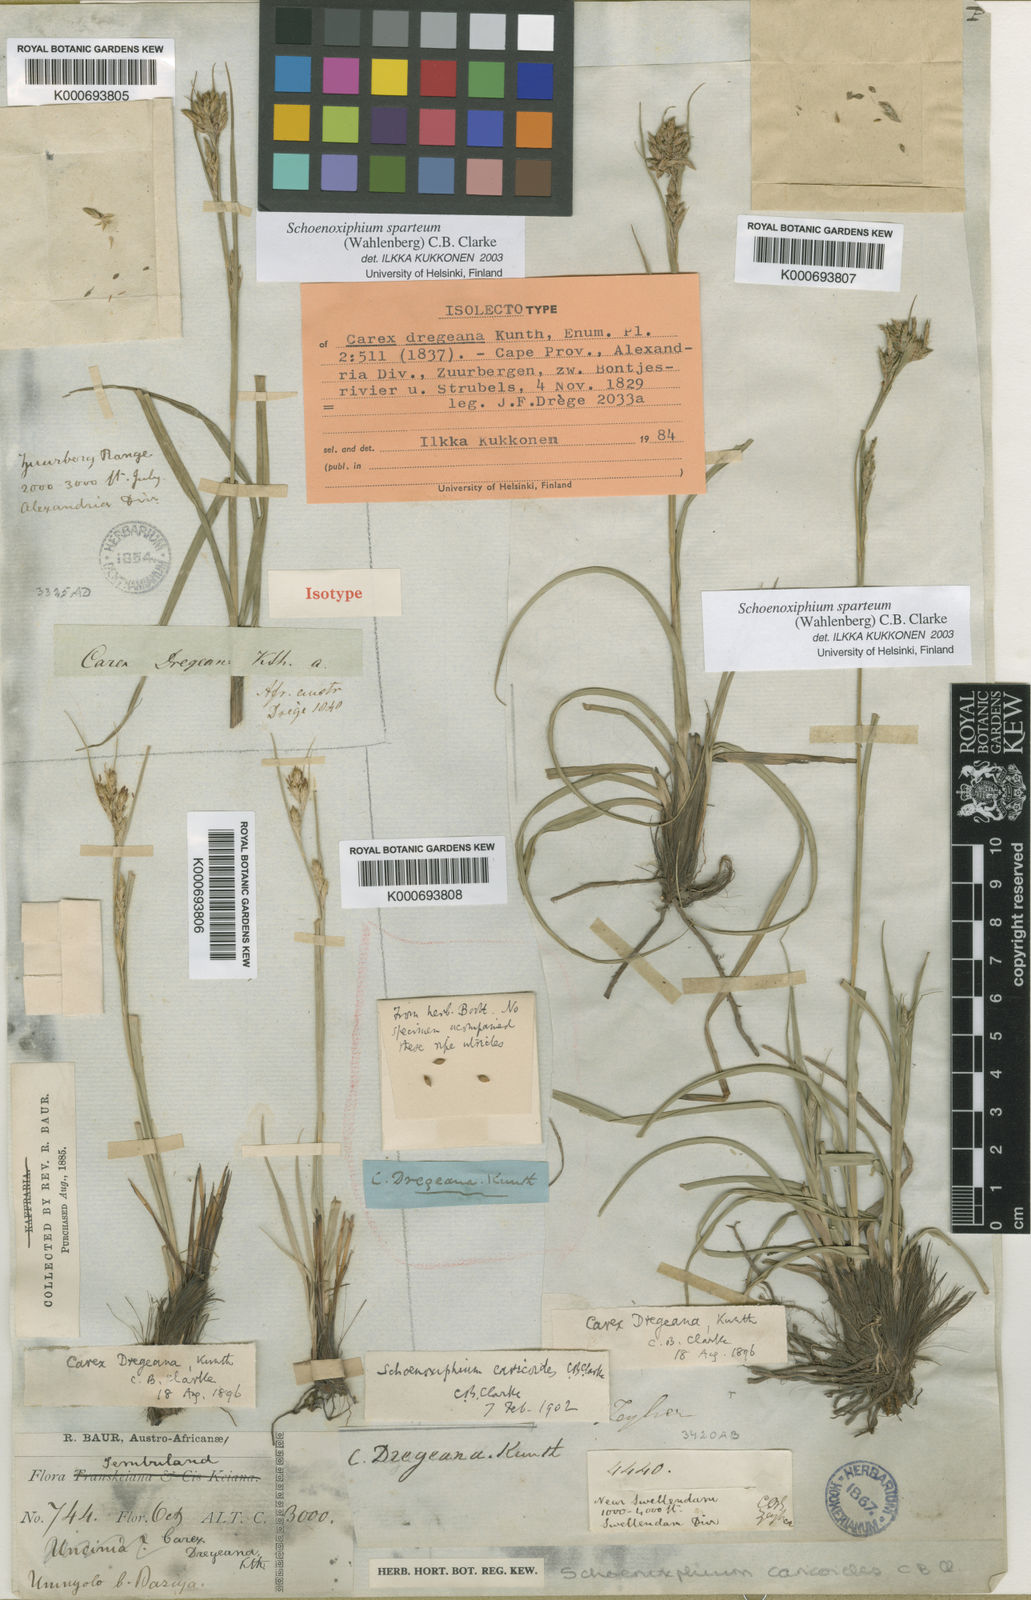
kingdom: Plantae
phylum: Tracheophyta
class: Liliopsida
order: Poales
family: Cyperaceae
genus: Carex
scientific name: Carex spartea
